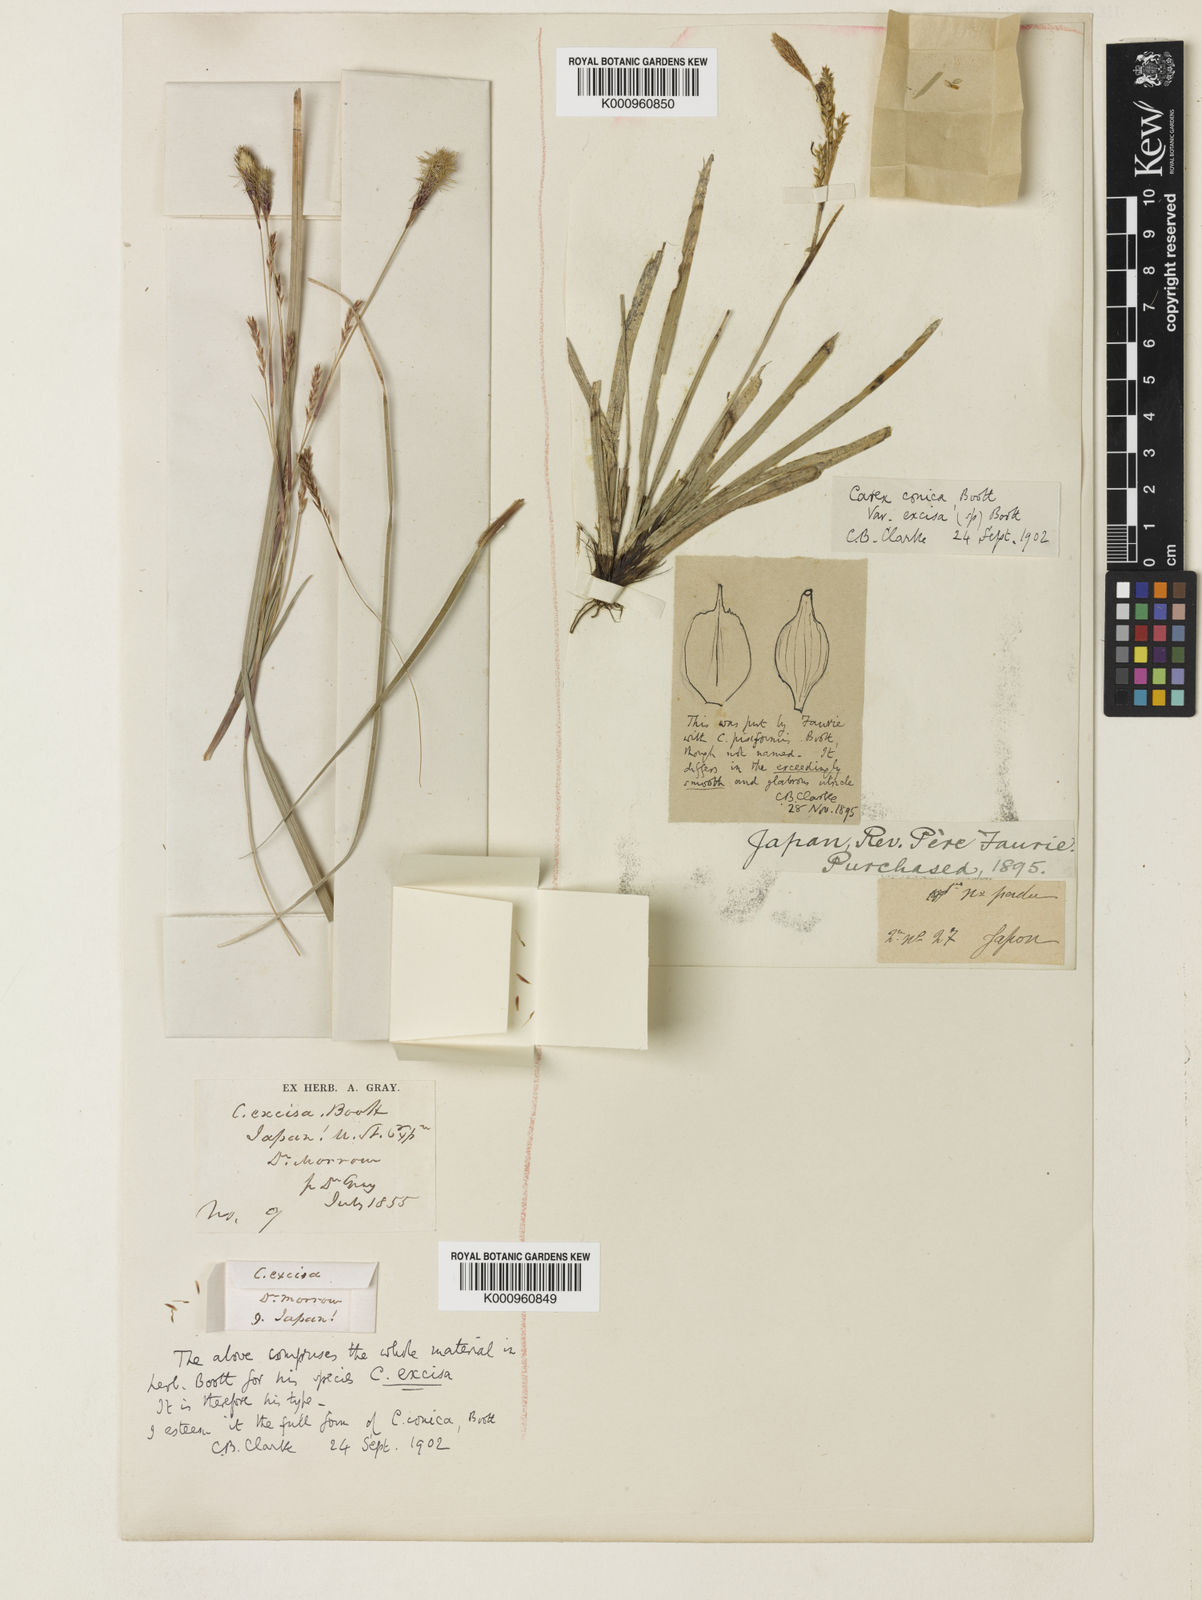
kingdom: Plantae
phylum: Tracheophyta
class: Liliopsida
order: Poales
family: Cyperaceae
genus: Carex
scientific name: Carex conica
